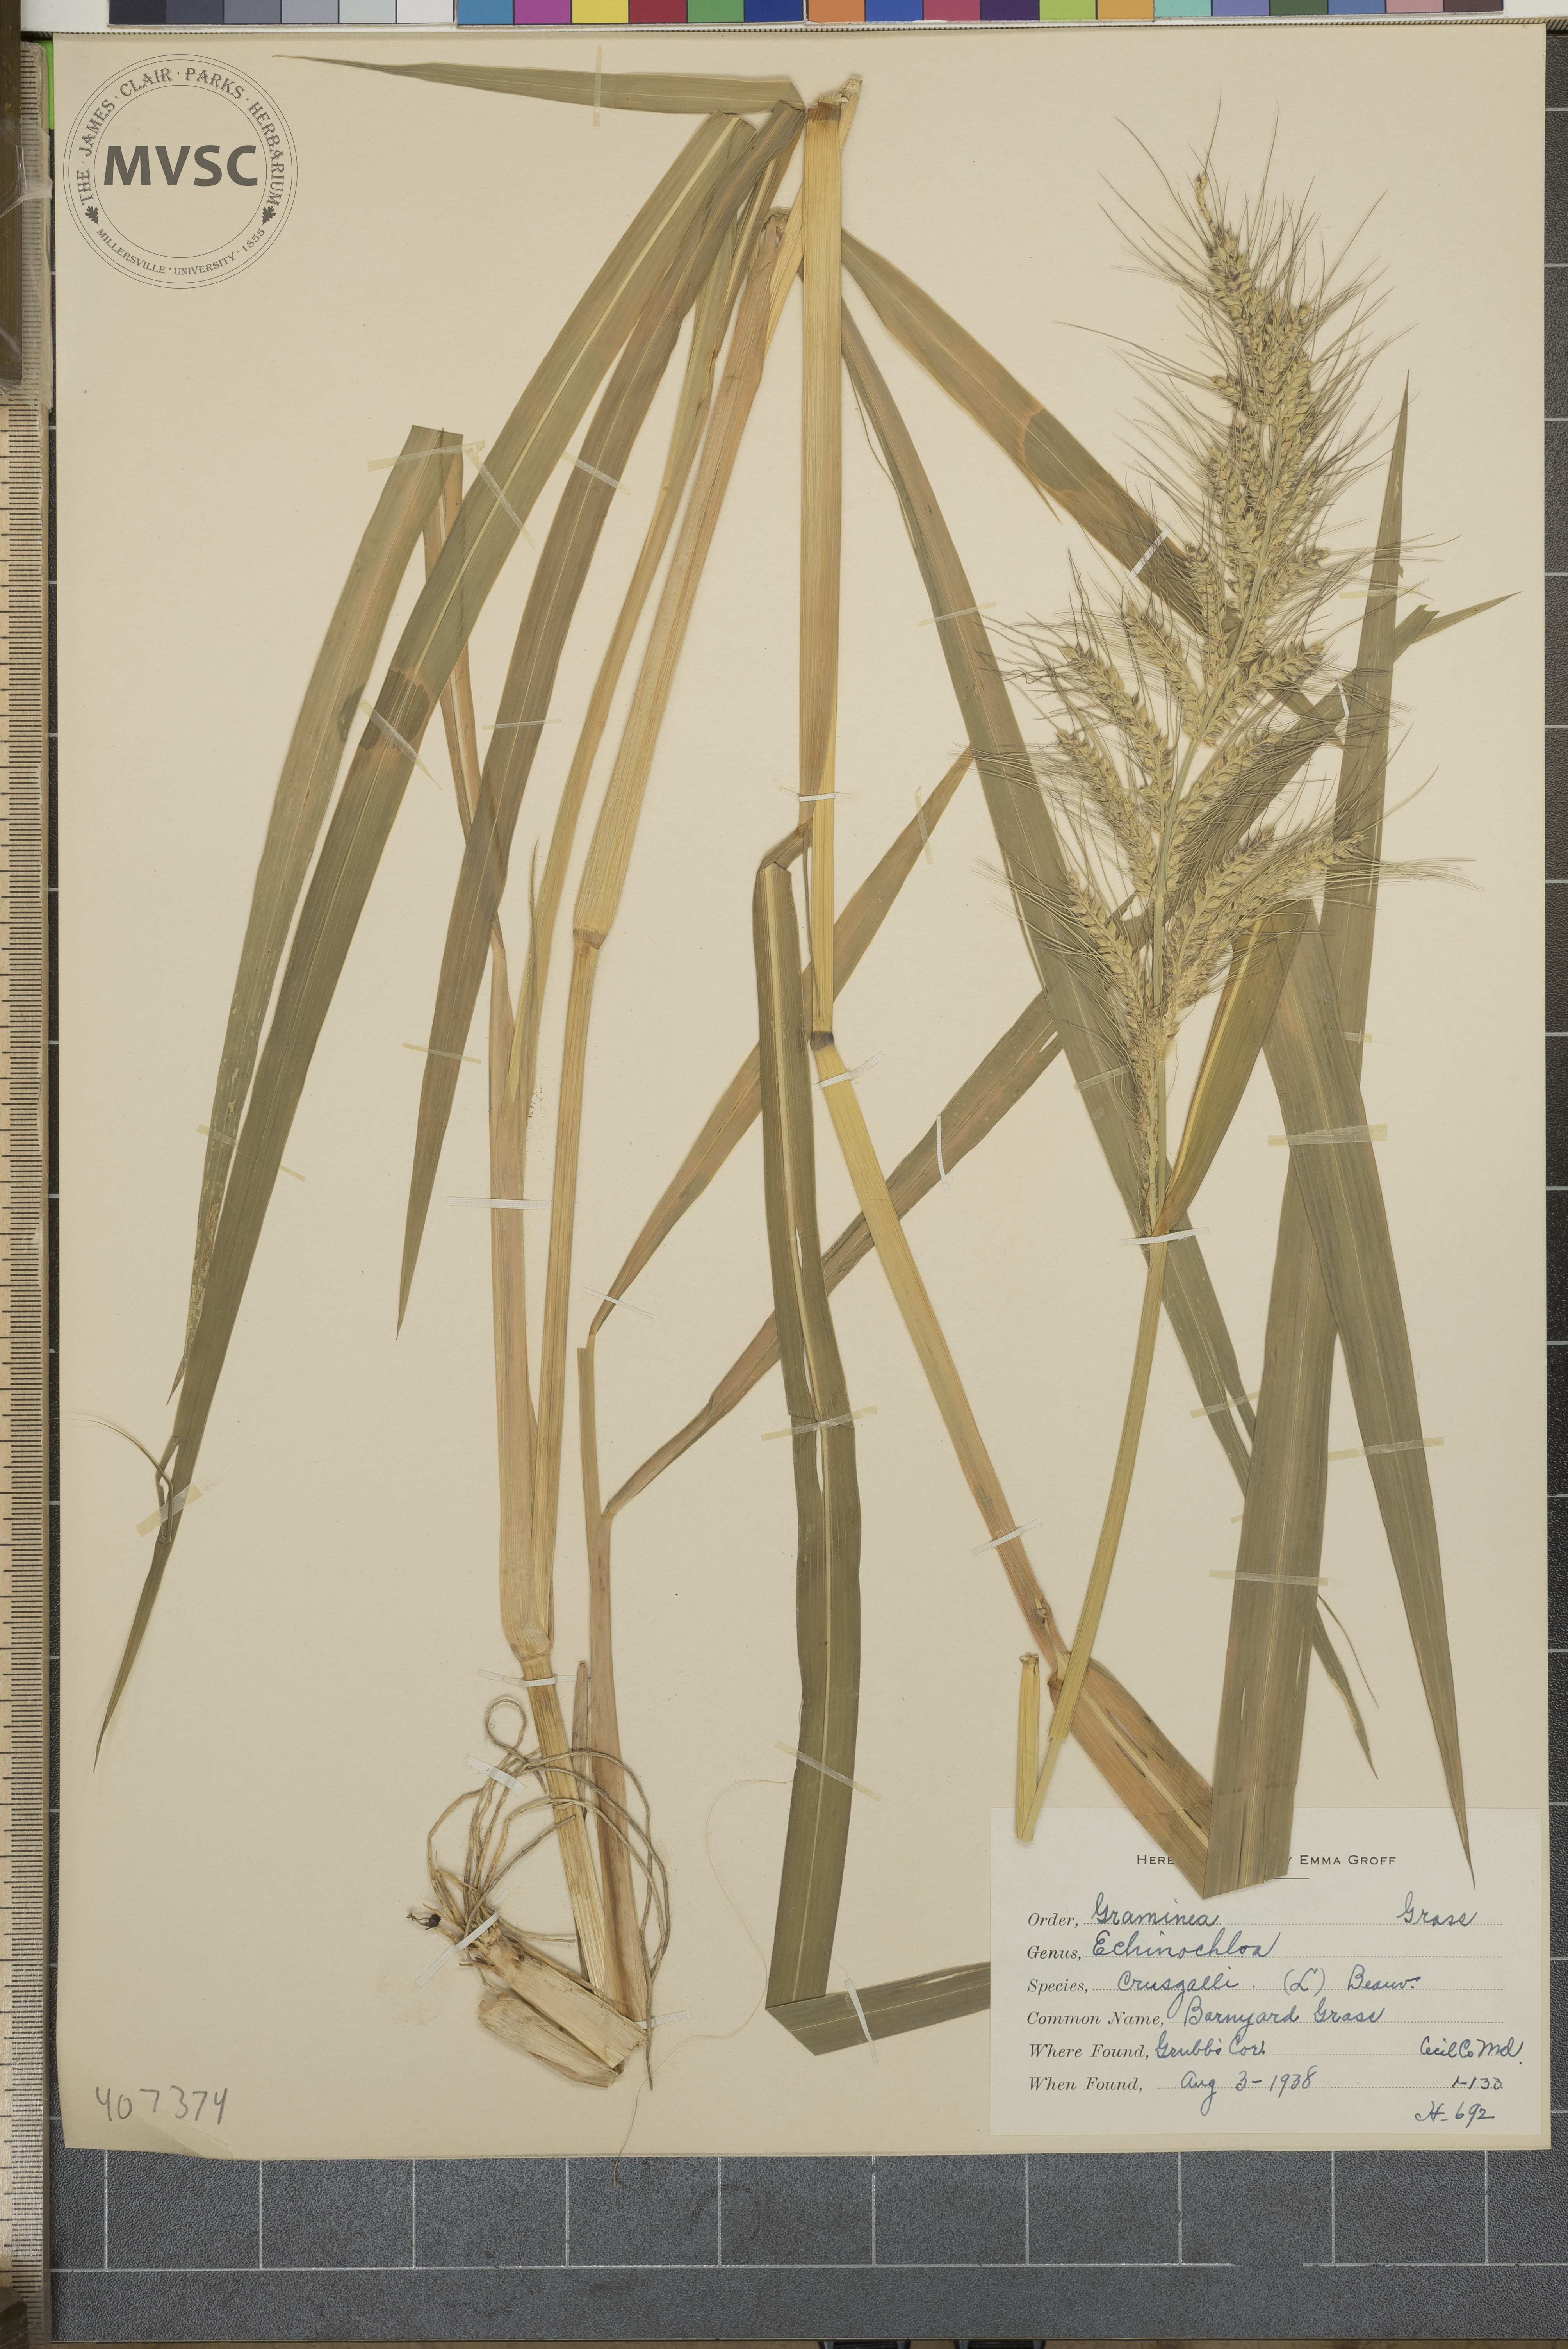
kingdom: Plantae
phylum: Tracheophyta
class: Liliopsida
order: Poales
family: Poaceae
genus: Echinochloa
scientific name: Echinochloa
